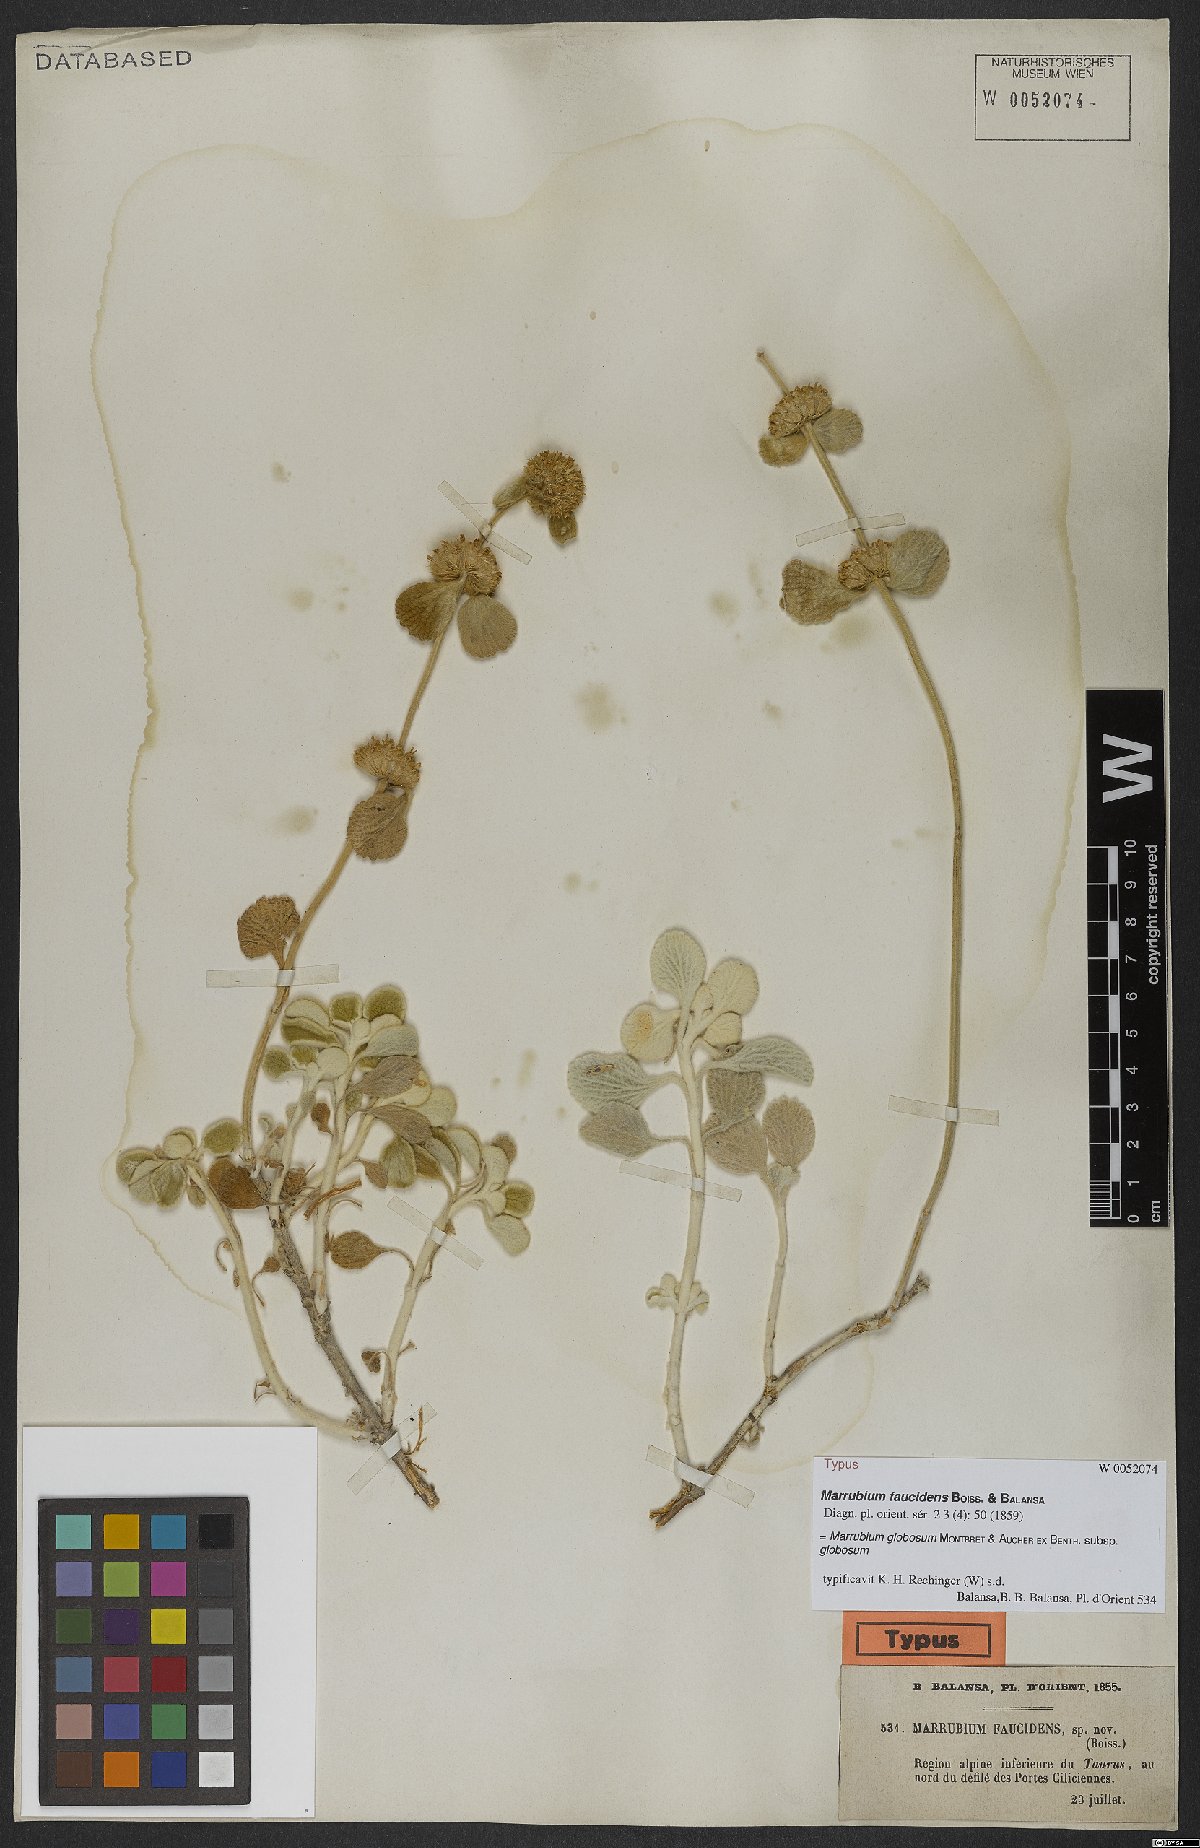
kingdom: Plantae
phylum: Tracheophyta
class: Magnoliopsida
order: Lamiales
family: Lamiaceae
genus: Marrubium
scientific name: Marrubium globosum
